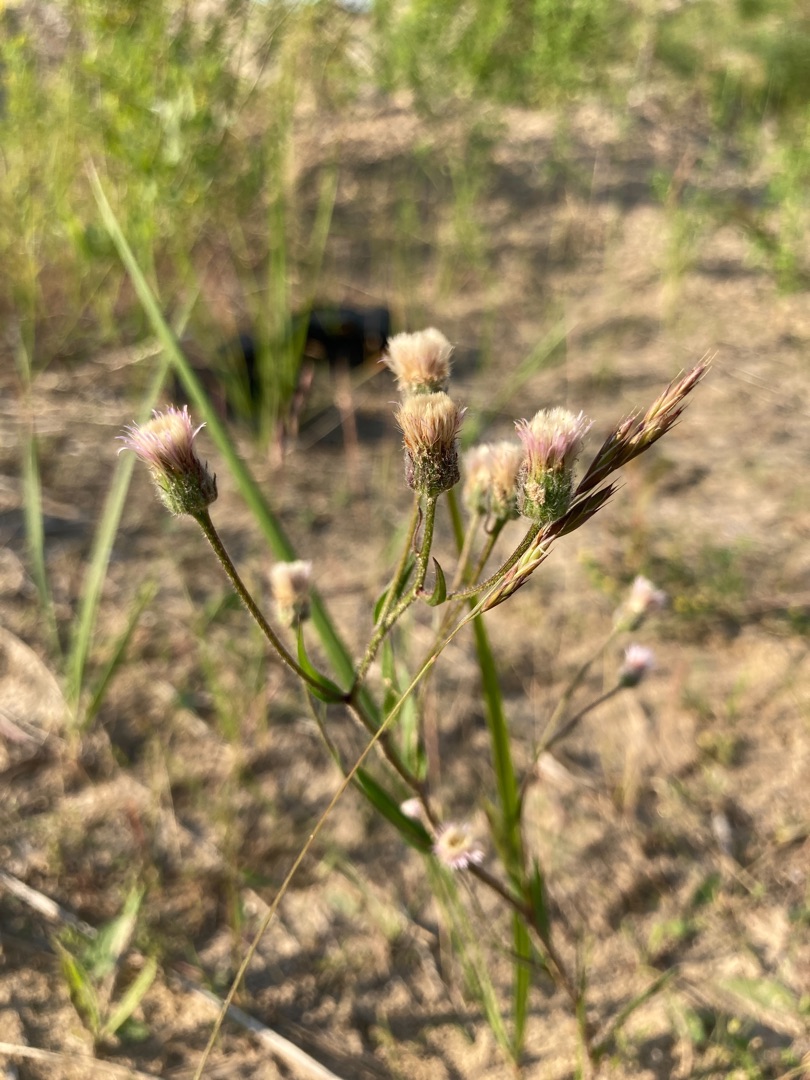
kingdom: Plantae
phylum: Tracheophyta
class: Magnoliopsida
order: Asterales
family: Asteraceae
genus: Erigeron
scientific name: Erigeron acris
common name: Bitter bakkestjerne
